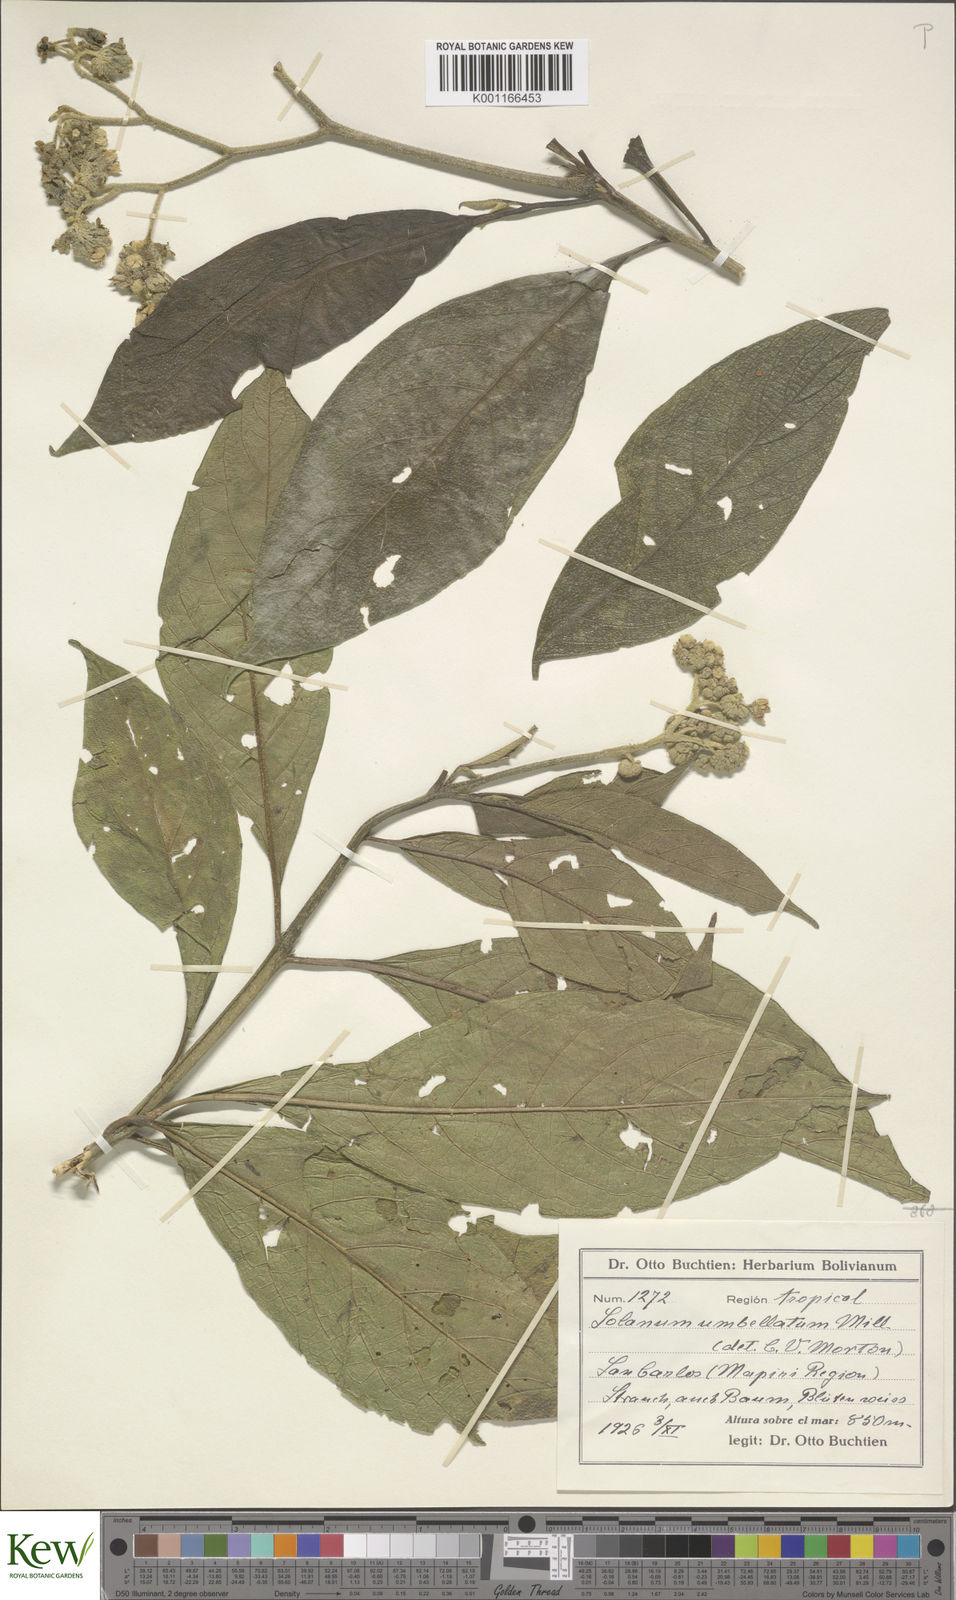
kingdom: Plantae
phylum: Tracheophyta
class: Magnoliopsida
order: Solanales
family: Solanaceae
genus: Solanum
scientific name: Solanum umbellatum
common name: Nightshade
